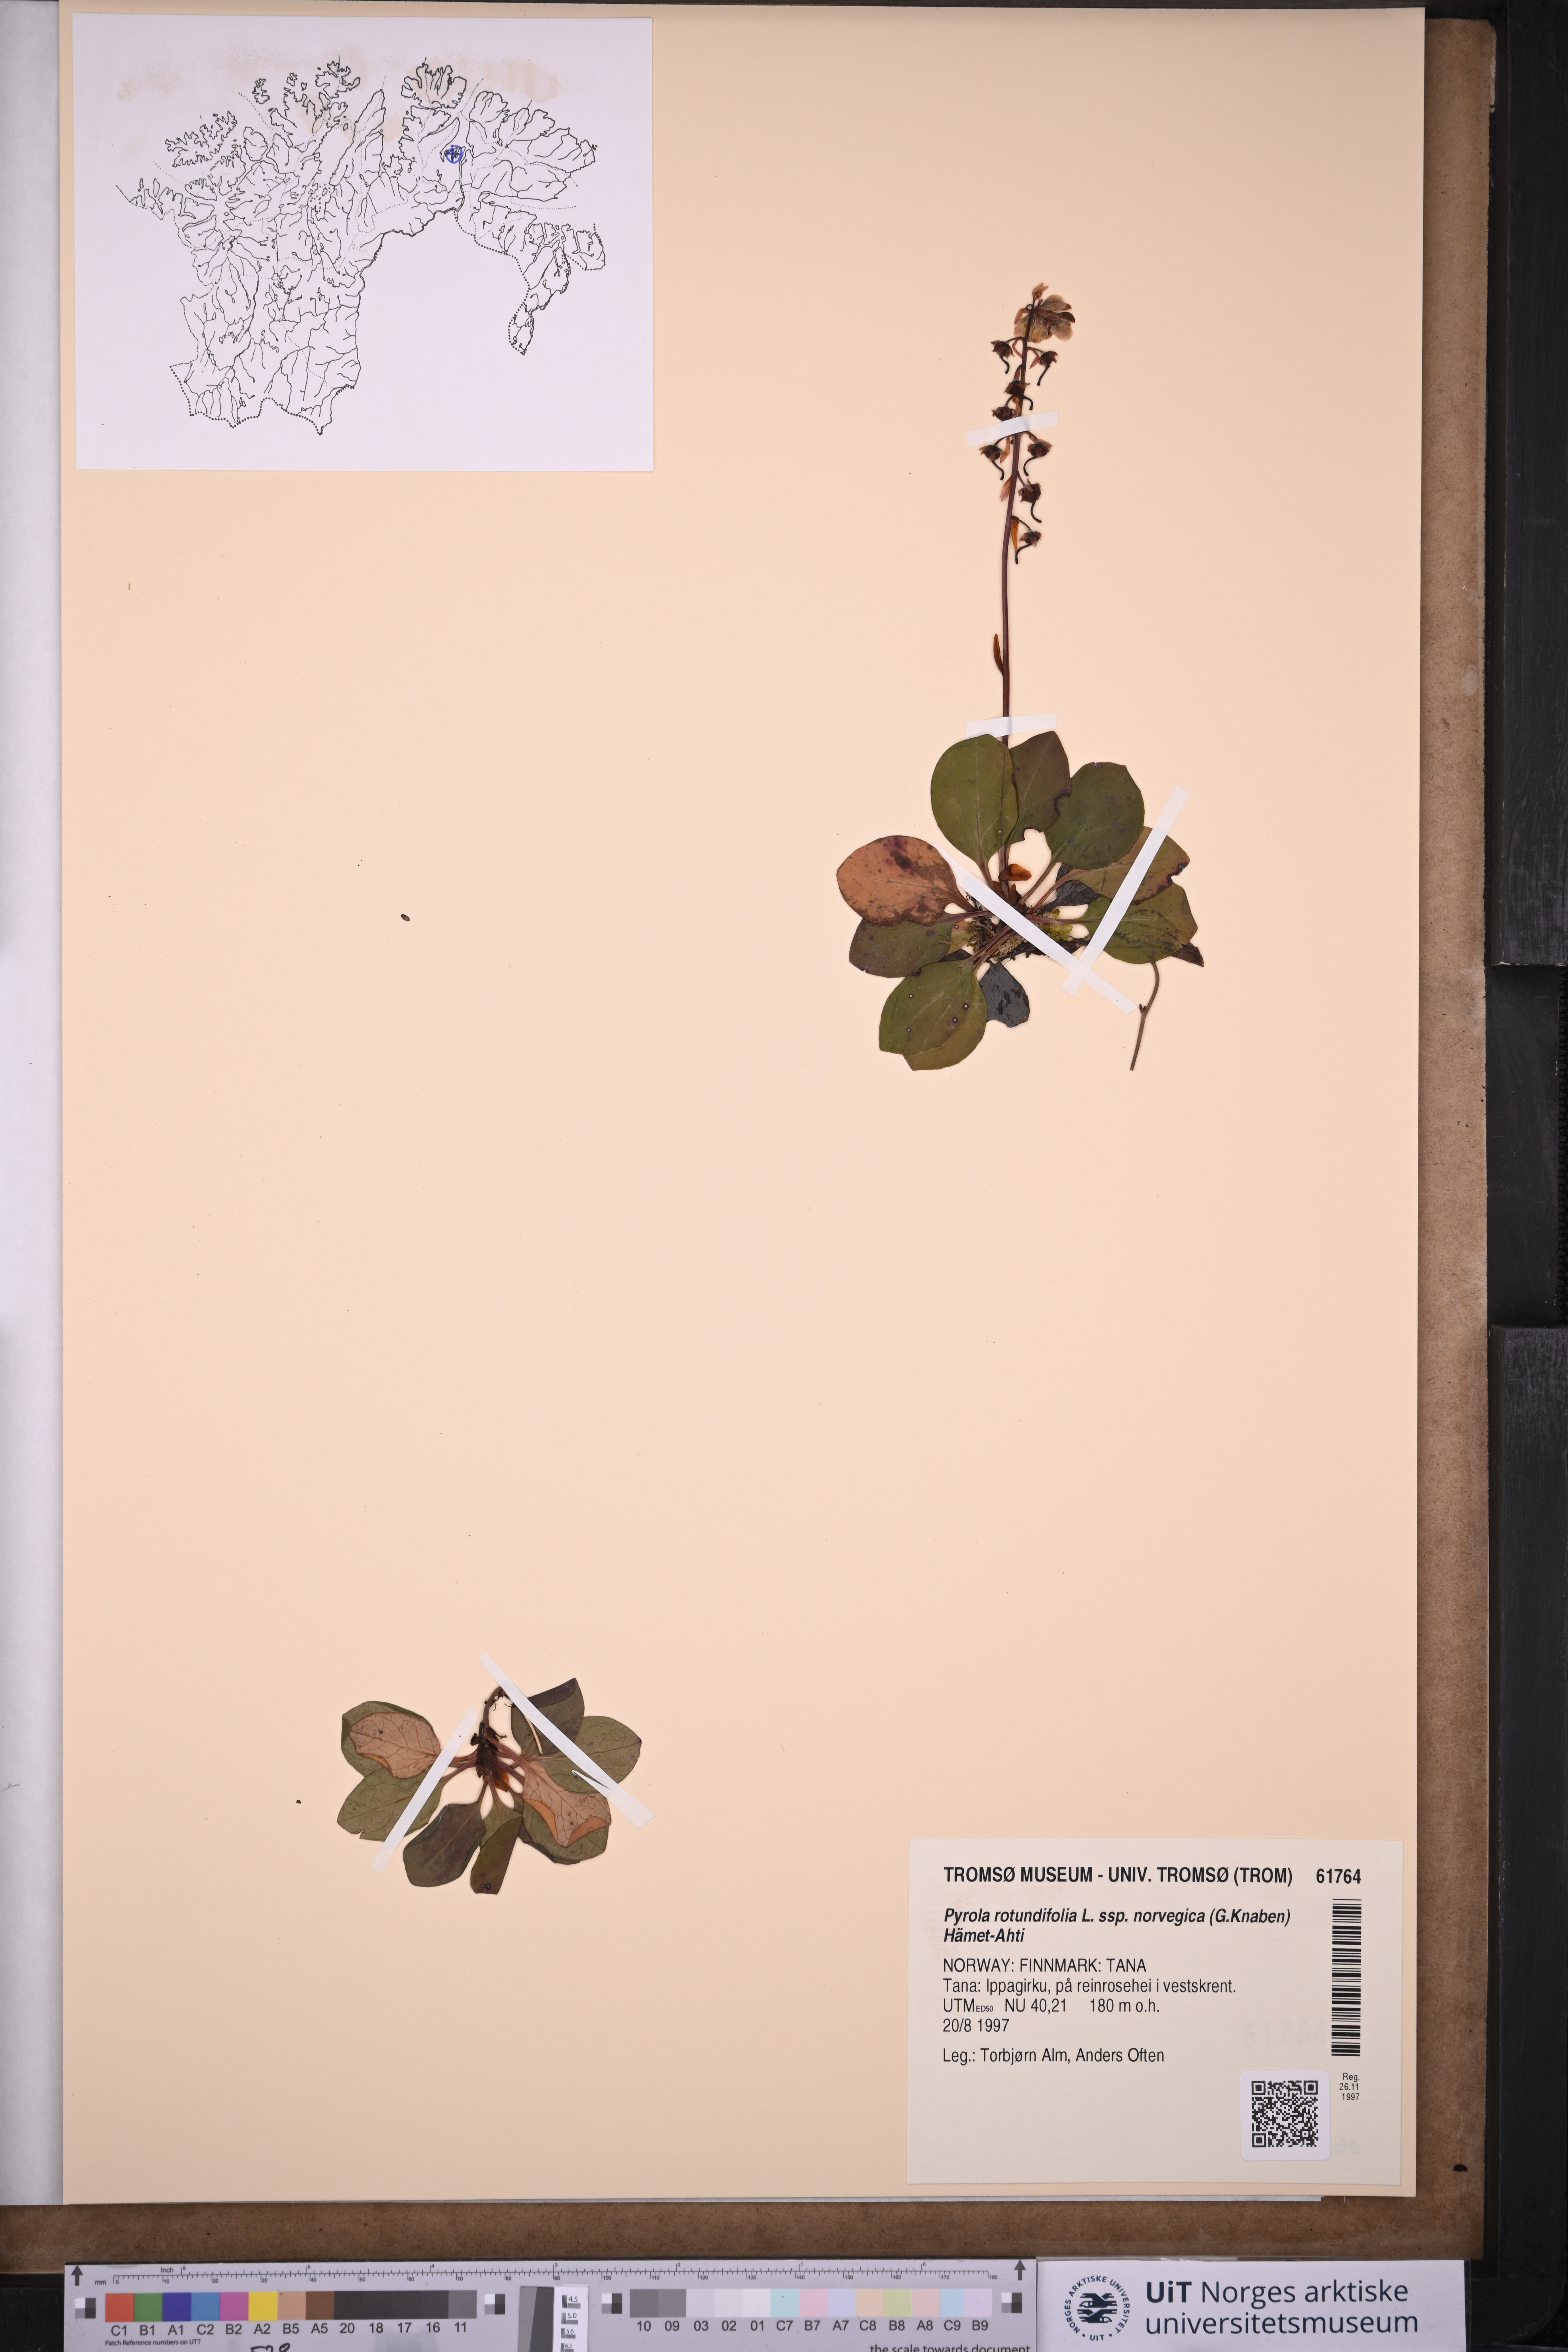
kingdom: Plantae
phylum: Tracheophyta
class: Magnoliopsida
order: Ericales
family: Ericaceae
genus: Pyrola
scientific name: Pyrola rotundifolia
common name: Round-leaved wintergreen
